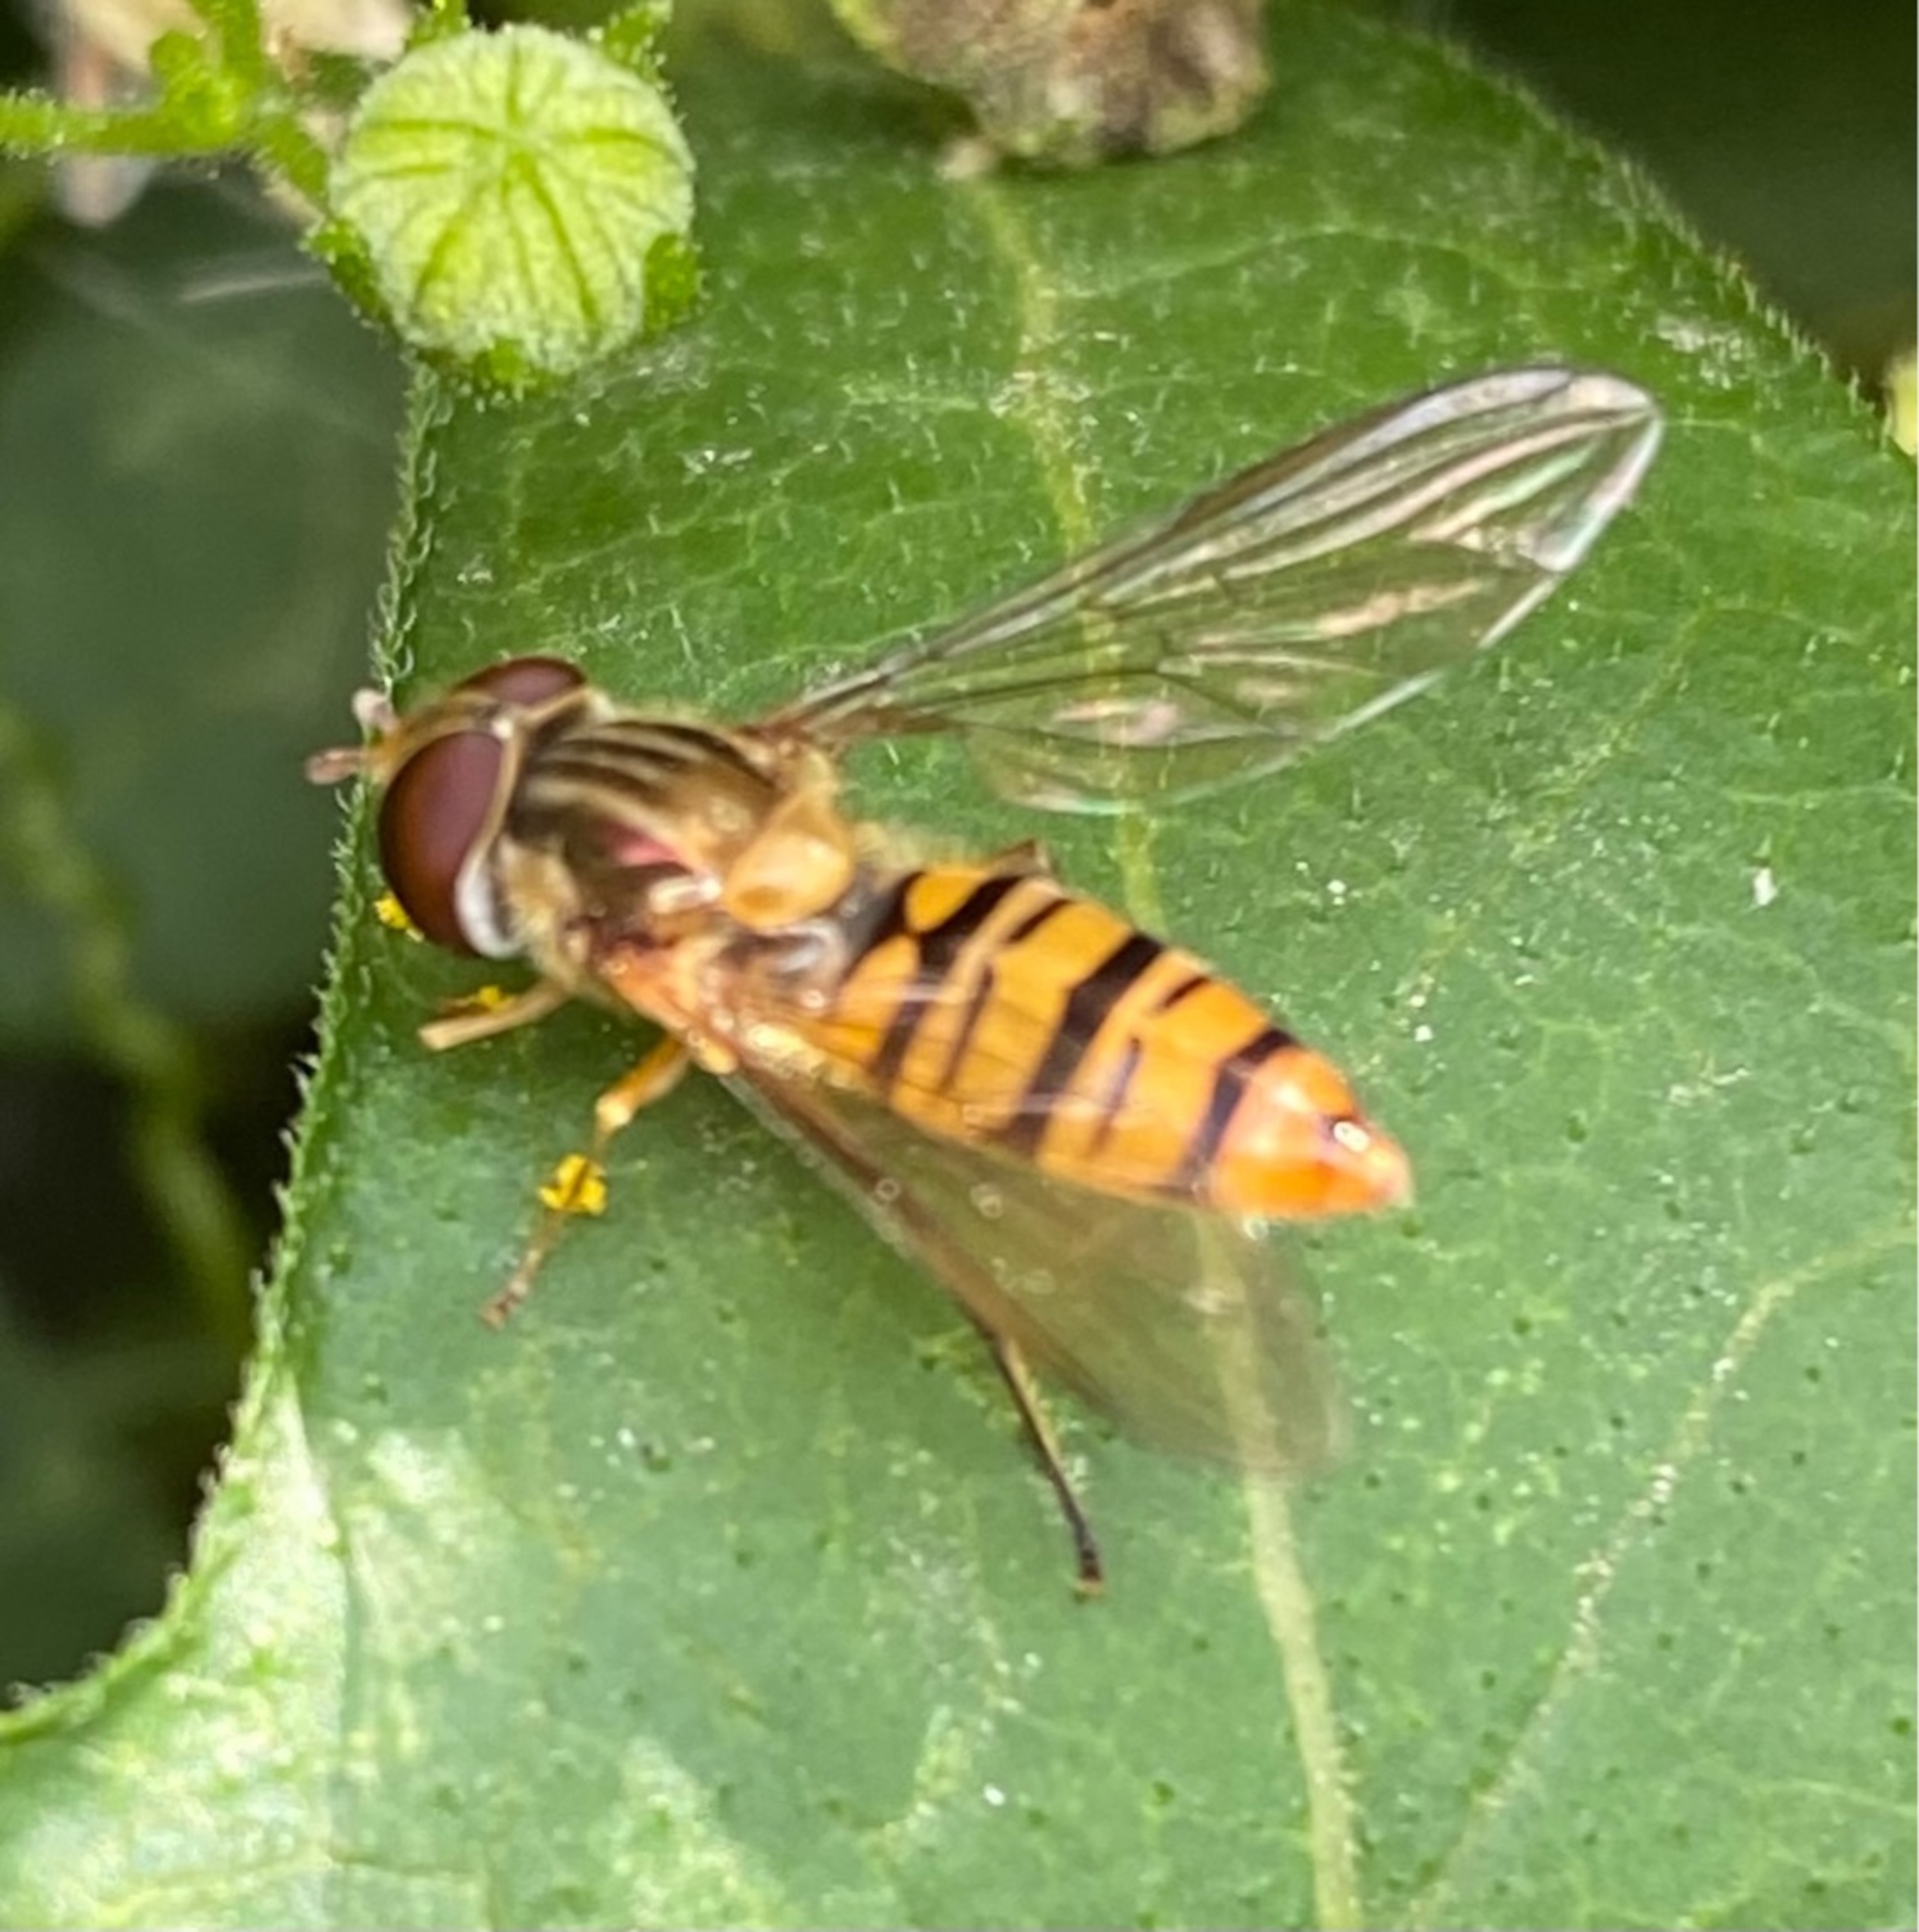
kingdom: Animalia
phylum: Arthropoda
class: Insecta
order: Diptera
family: Syrphidae
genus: Episyrphus
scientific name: Episyrphus balteatus
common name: Dobbeltbåndet svirreflue
